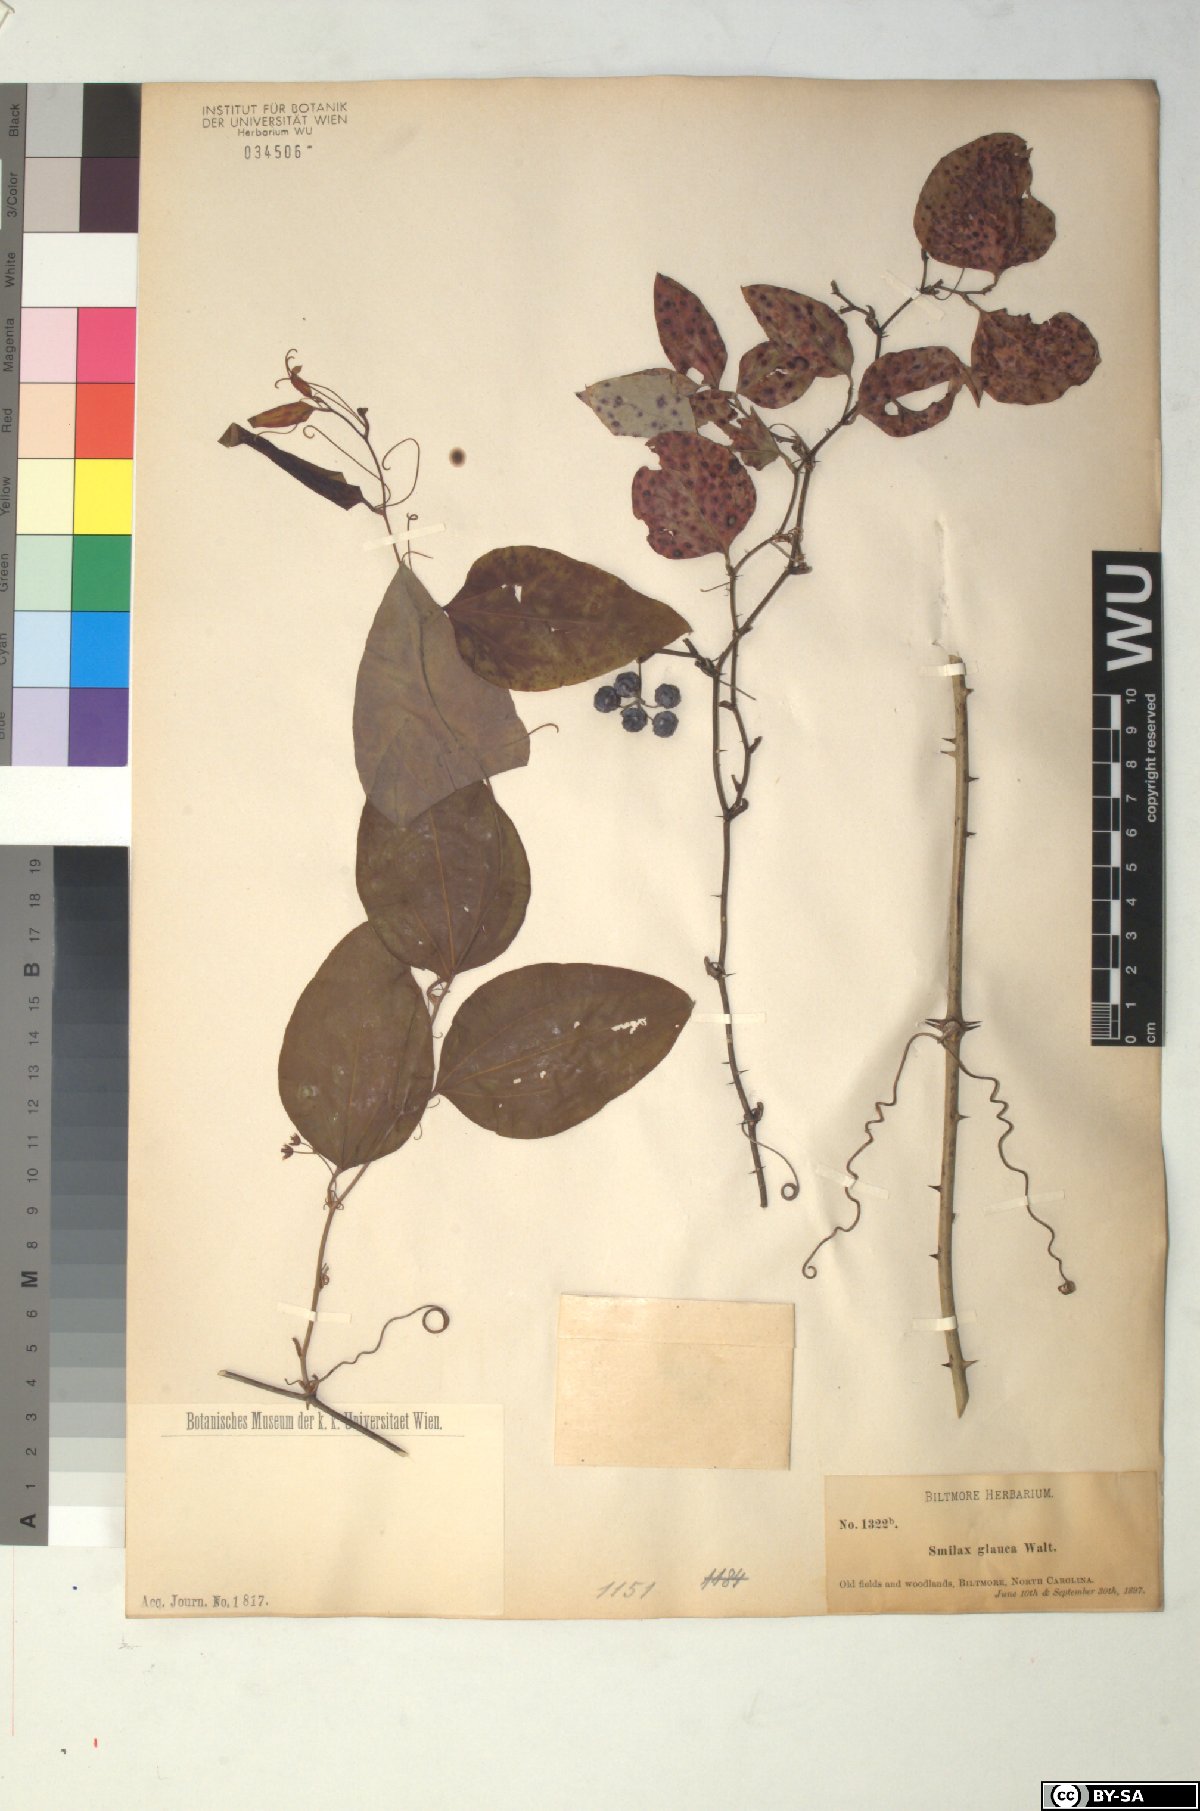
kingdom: Plantae
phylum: Tracheophyta
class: Liliopsida
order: Liliales
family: Smilacaceae
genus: Smilax
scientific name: Smilax glauca
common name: Cat greenbrier
